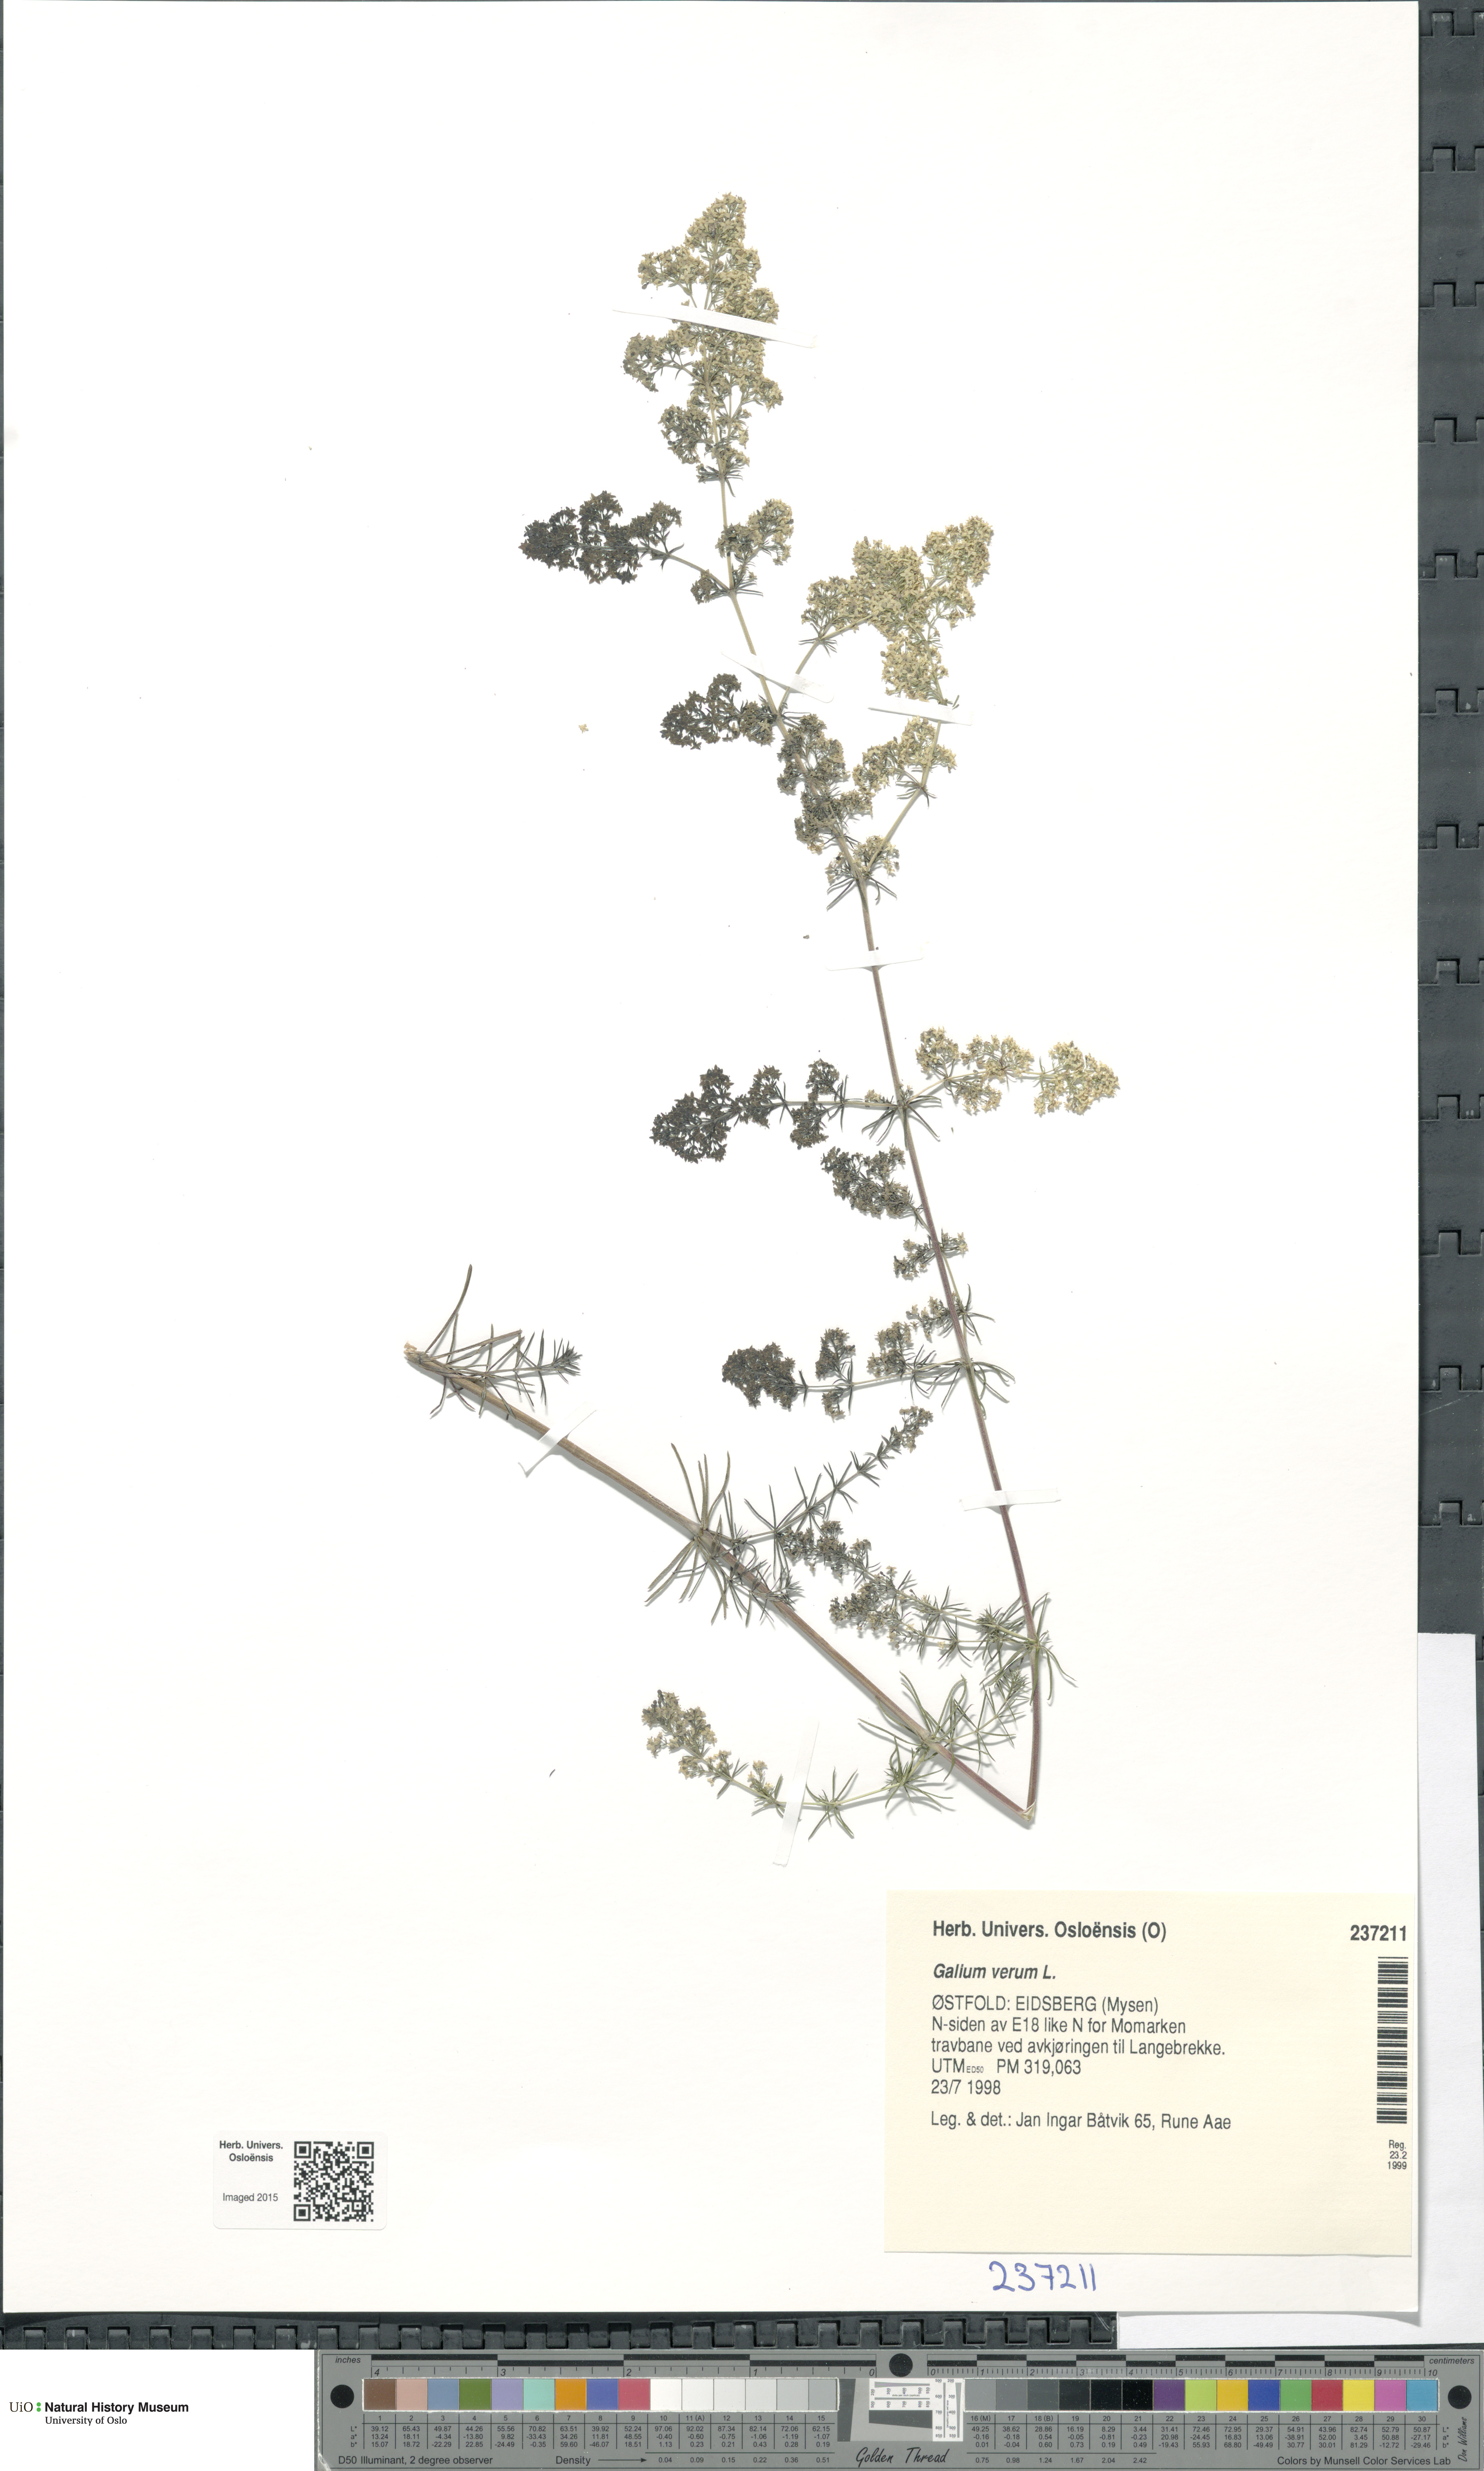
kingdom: Plantae
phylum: Tracheophyta
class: Magnoliopsida
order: Gentianales
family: Rubiaceae
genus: Galium
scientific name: Galium verum
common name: Lady's bedstraw
